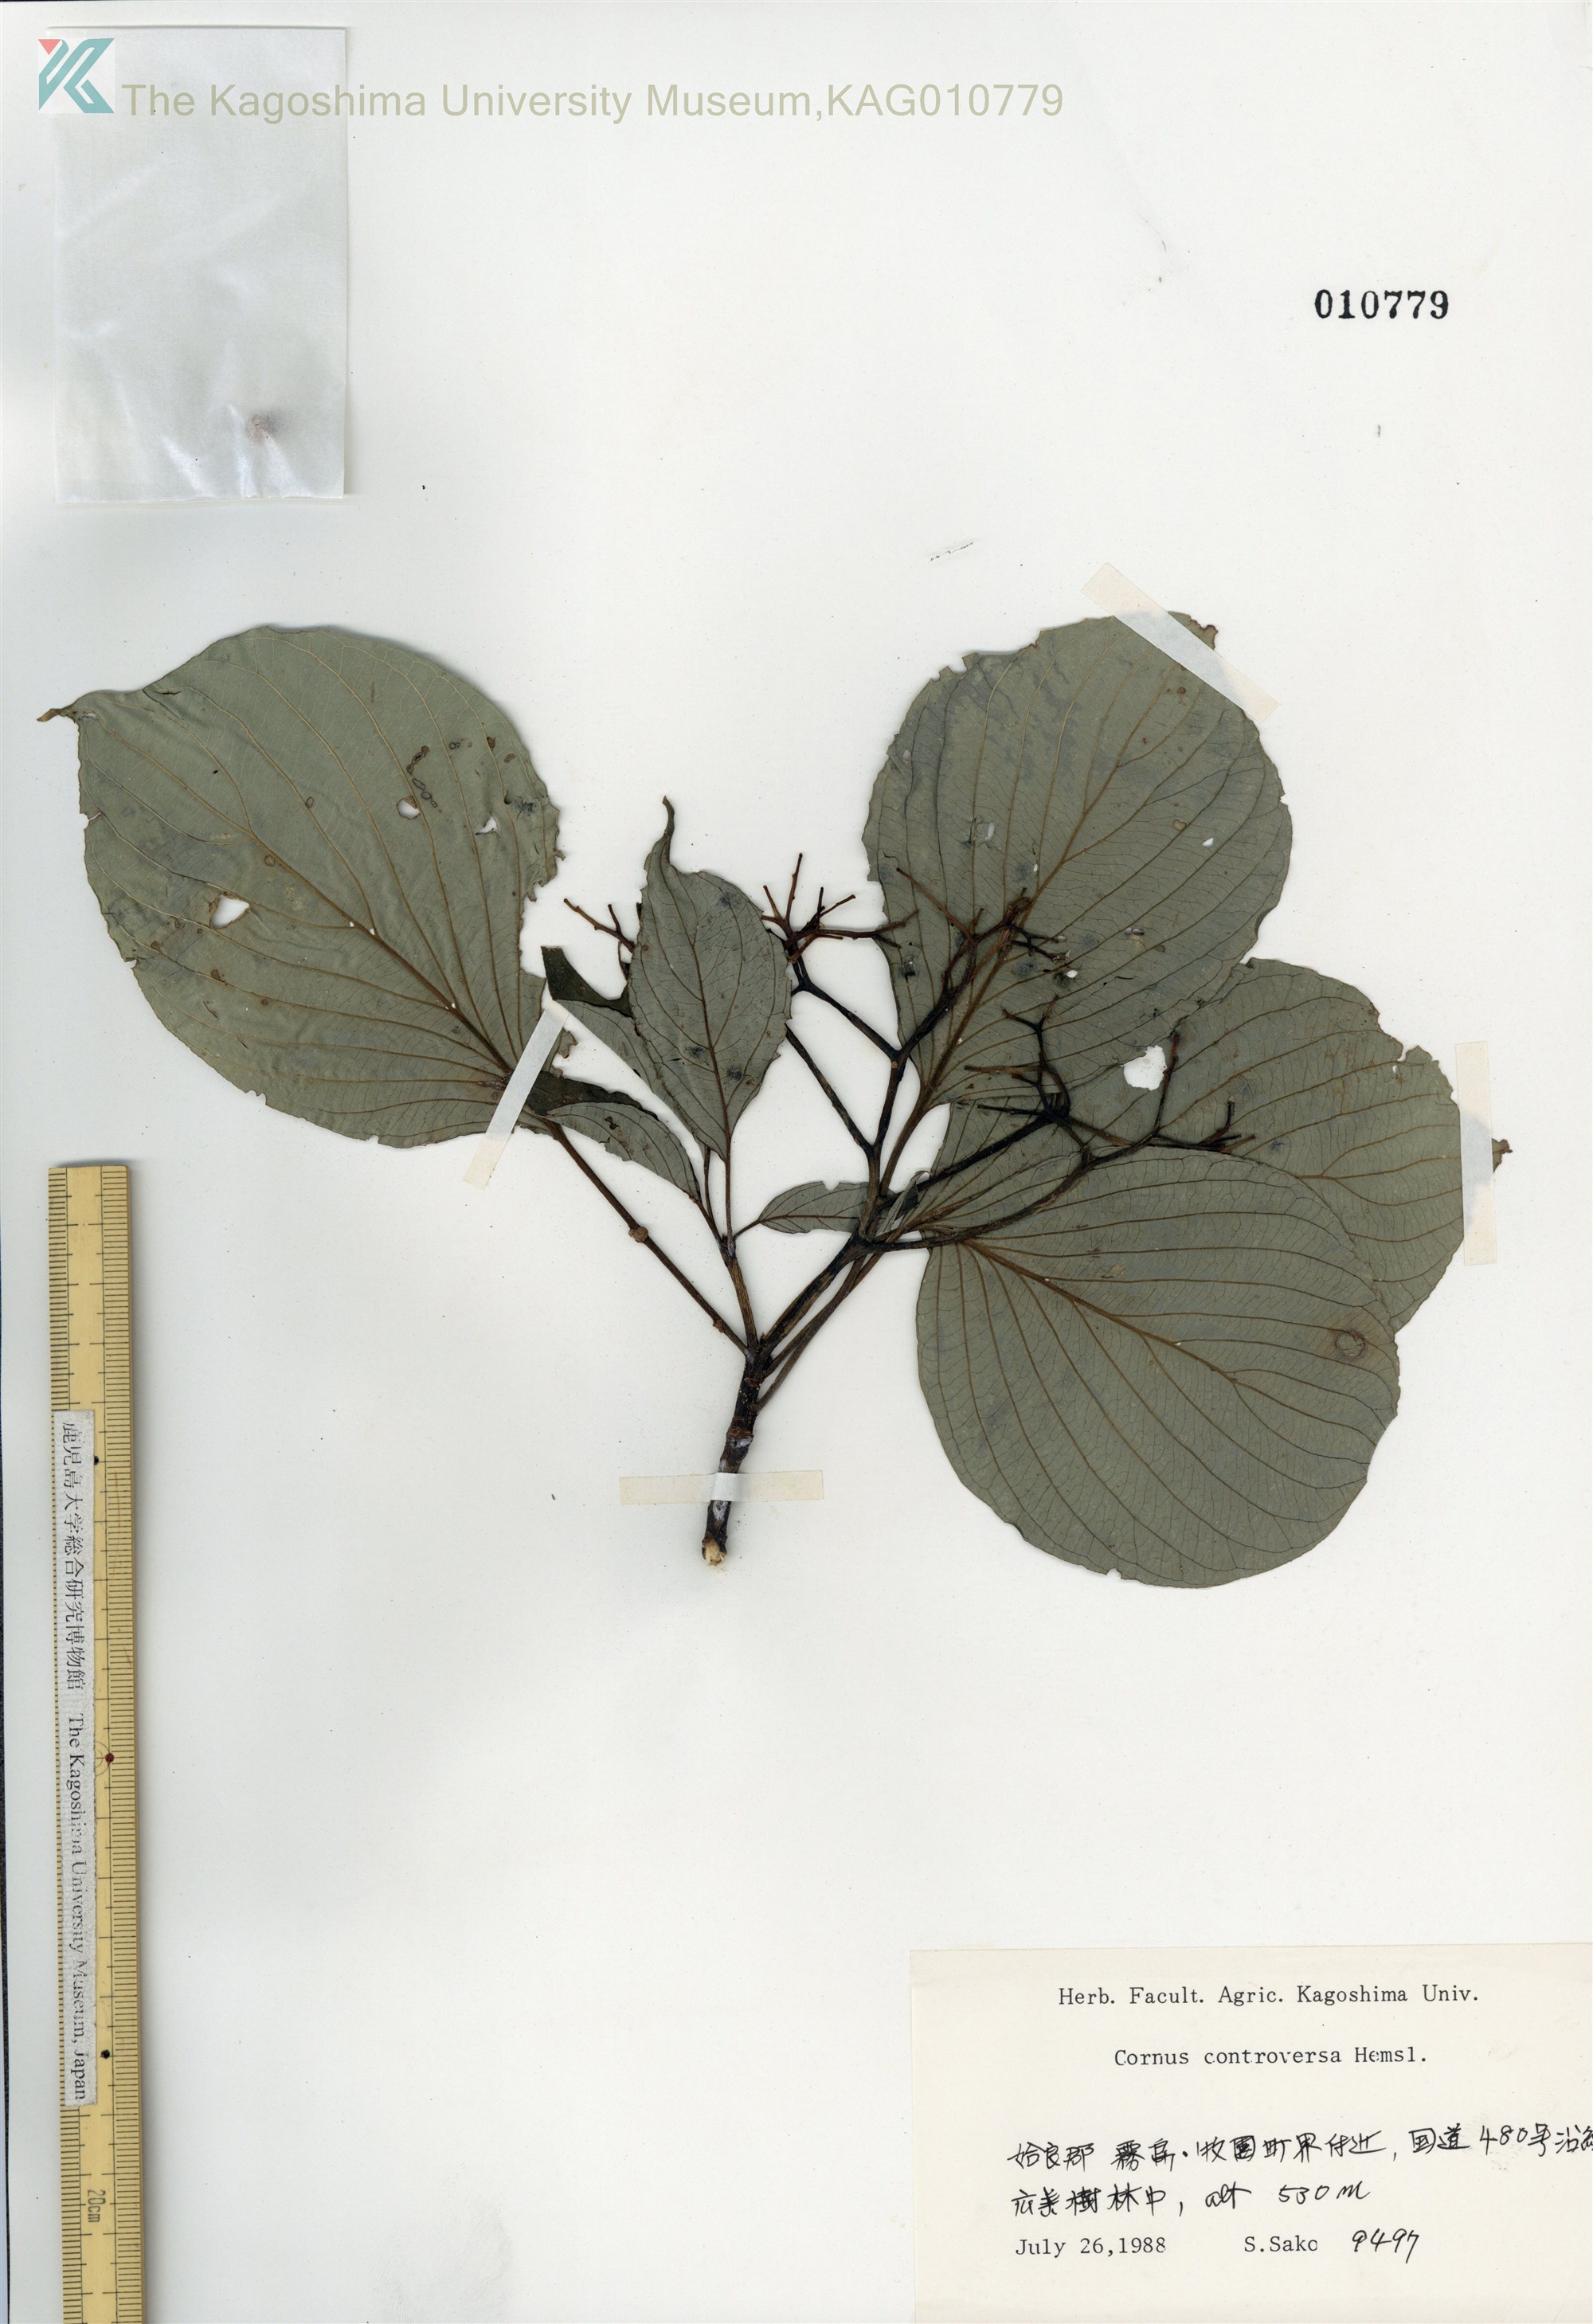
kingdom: Plantae
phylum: Tracheophyta
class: Magnoliopsida
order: Cornales
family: Cornaceae
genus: Cornus
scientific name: Cornus controversa
